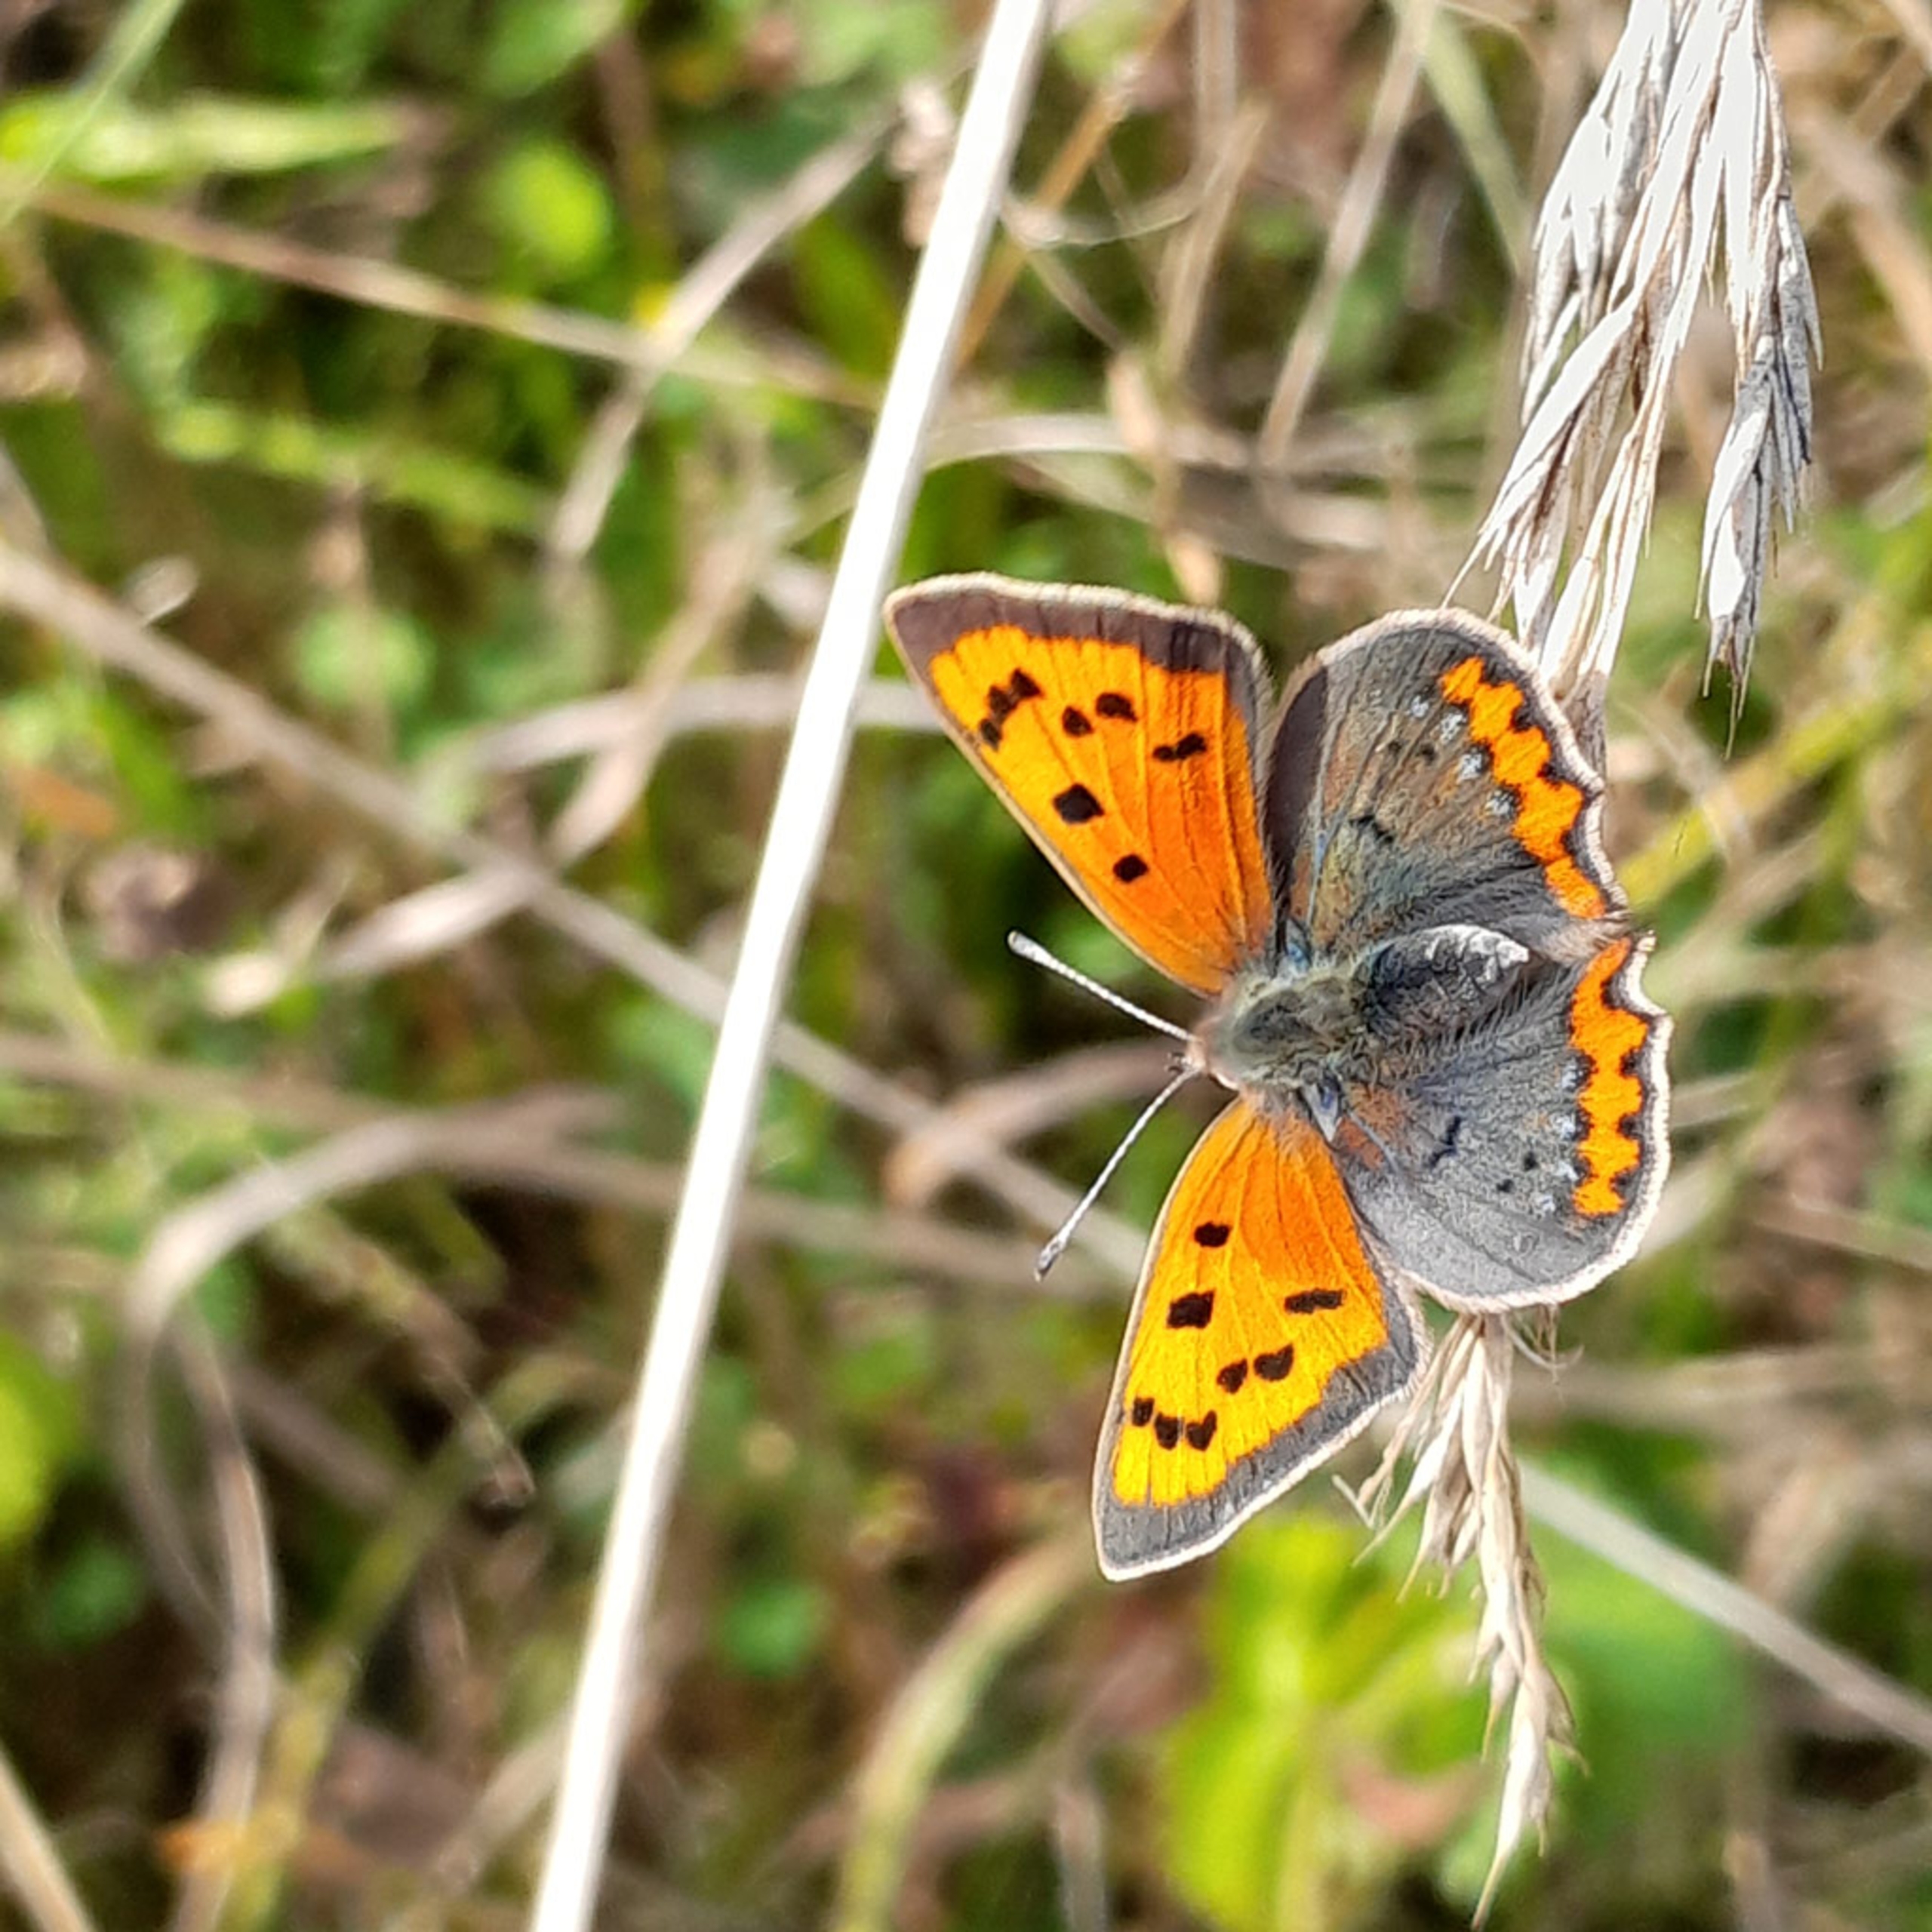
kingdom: Animalia
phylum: Arthropoda
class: Insecta
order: Lepidoptera
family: Lycaenidae
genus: Lycaena
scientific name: Lycaena phlaeas
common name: Lille ildfugl
